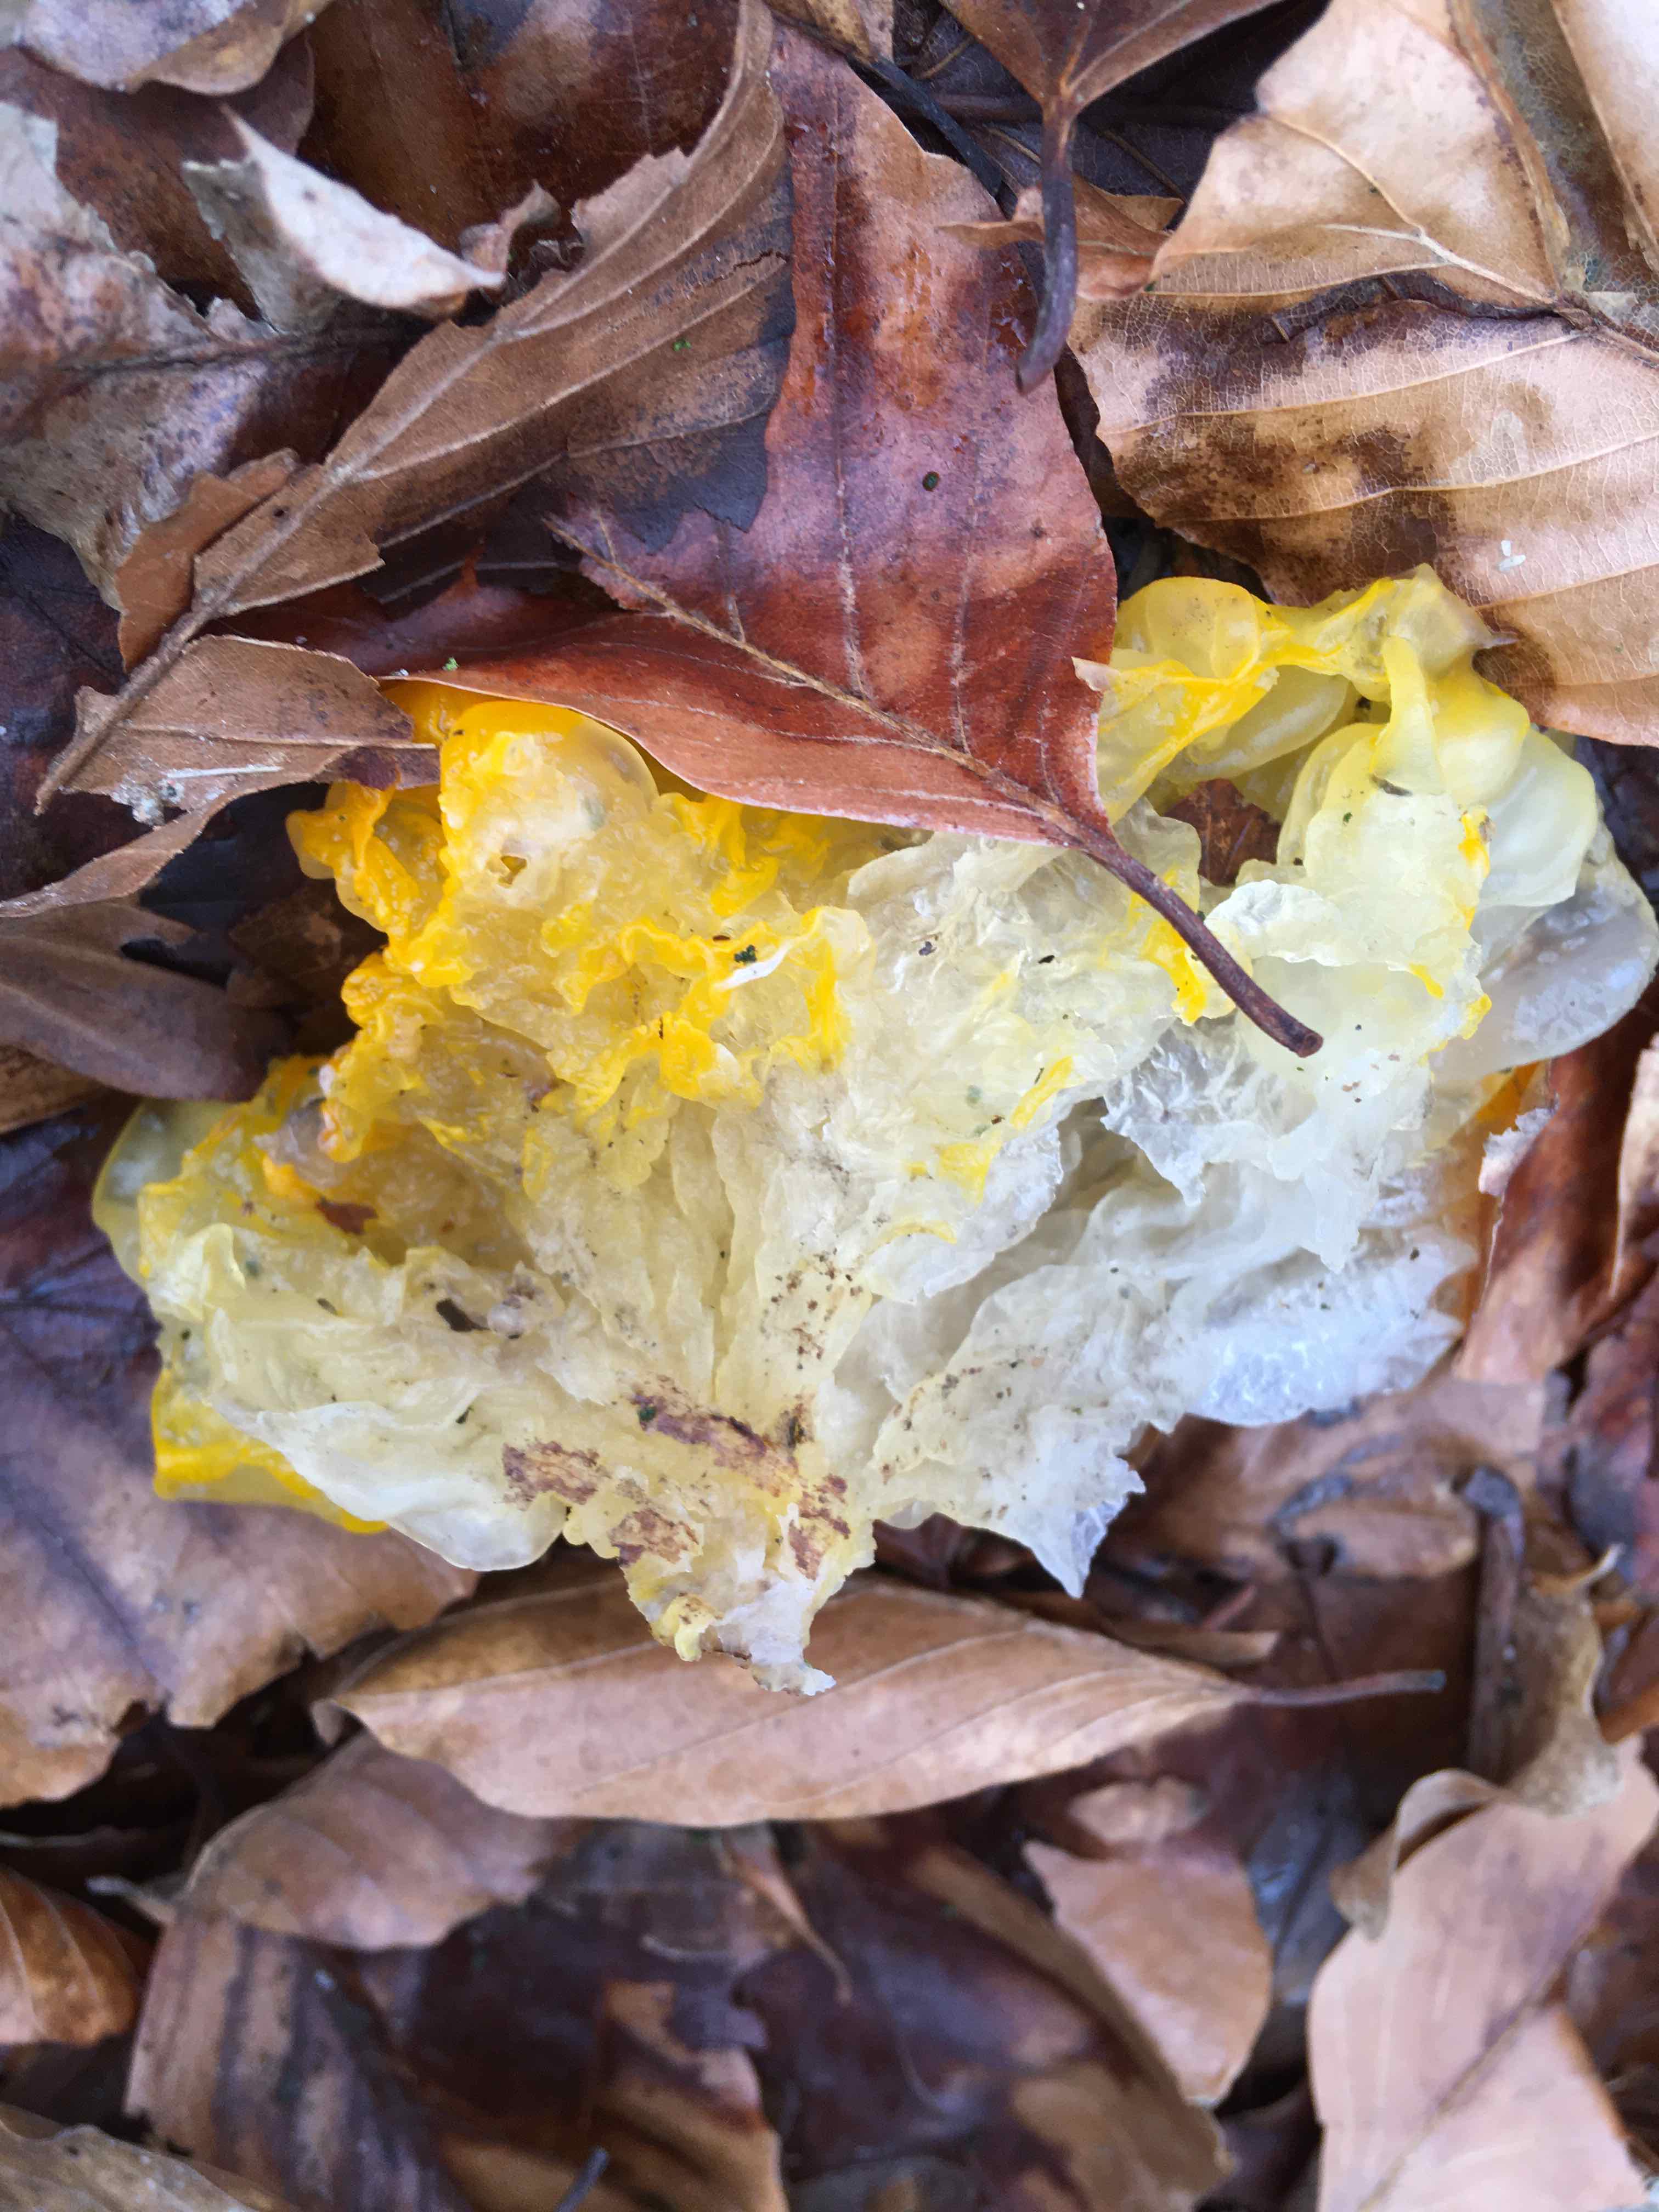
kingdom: Fungi
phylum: Basidiomycota
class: Tremellomycetes
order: Tremellales
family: Tremellaceae
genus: Tremella
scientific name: Tremella mesenterica
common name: gul bævresvamp
